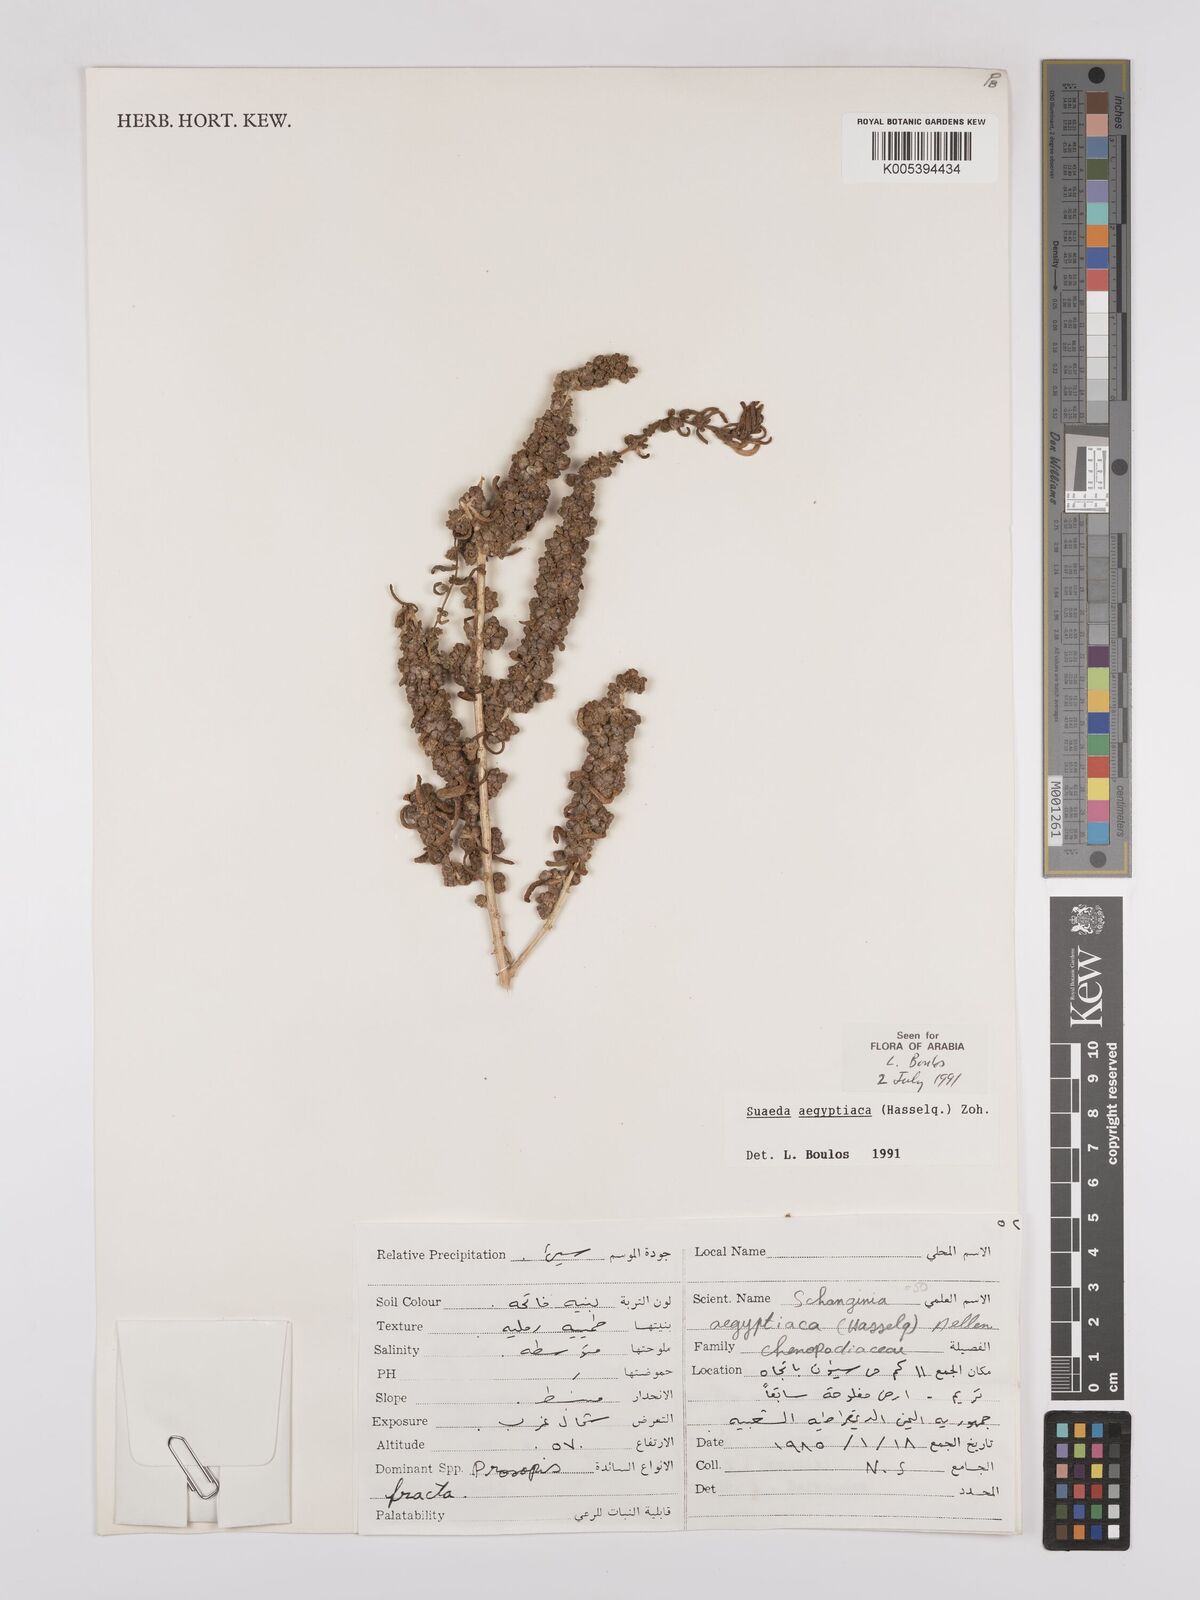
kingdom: Plantae
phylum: Tracheophyta
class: Magnoliopsida
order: Caryophyllales
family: Amaranthaceae
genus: Suaeda
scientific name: Suaeda aegyptiaca
